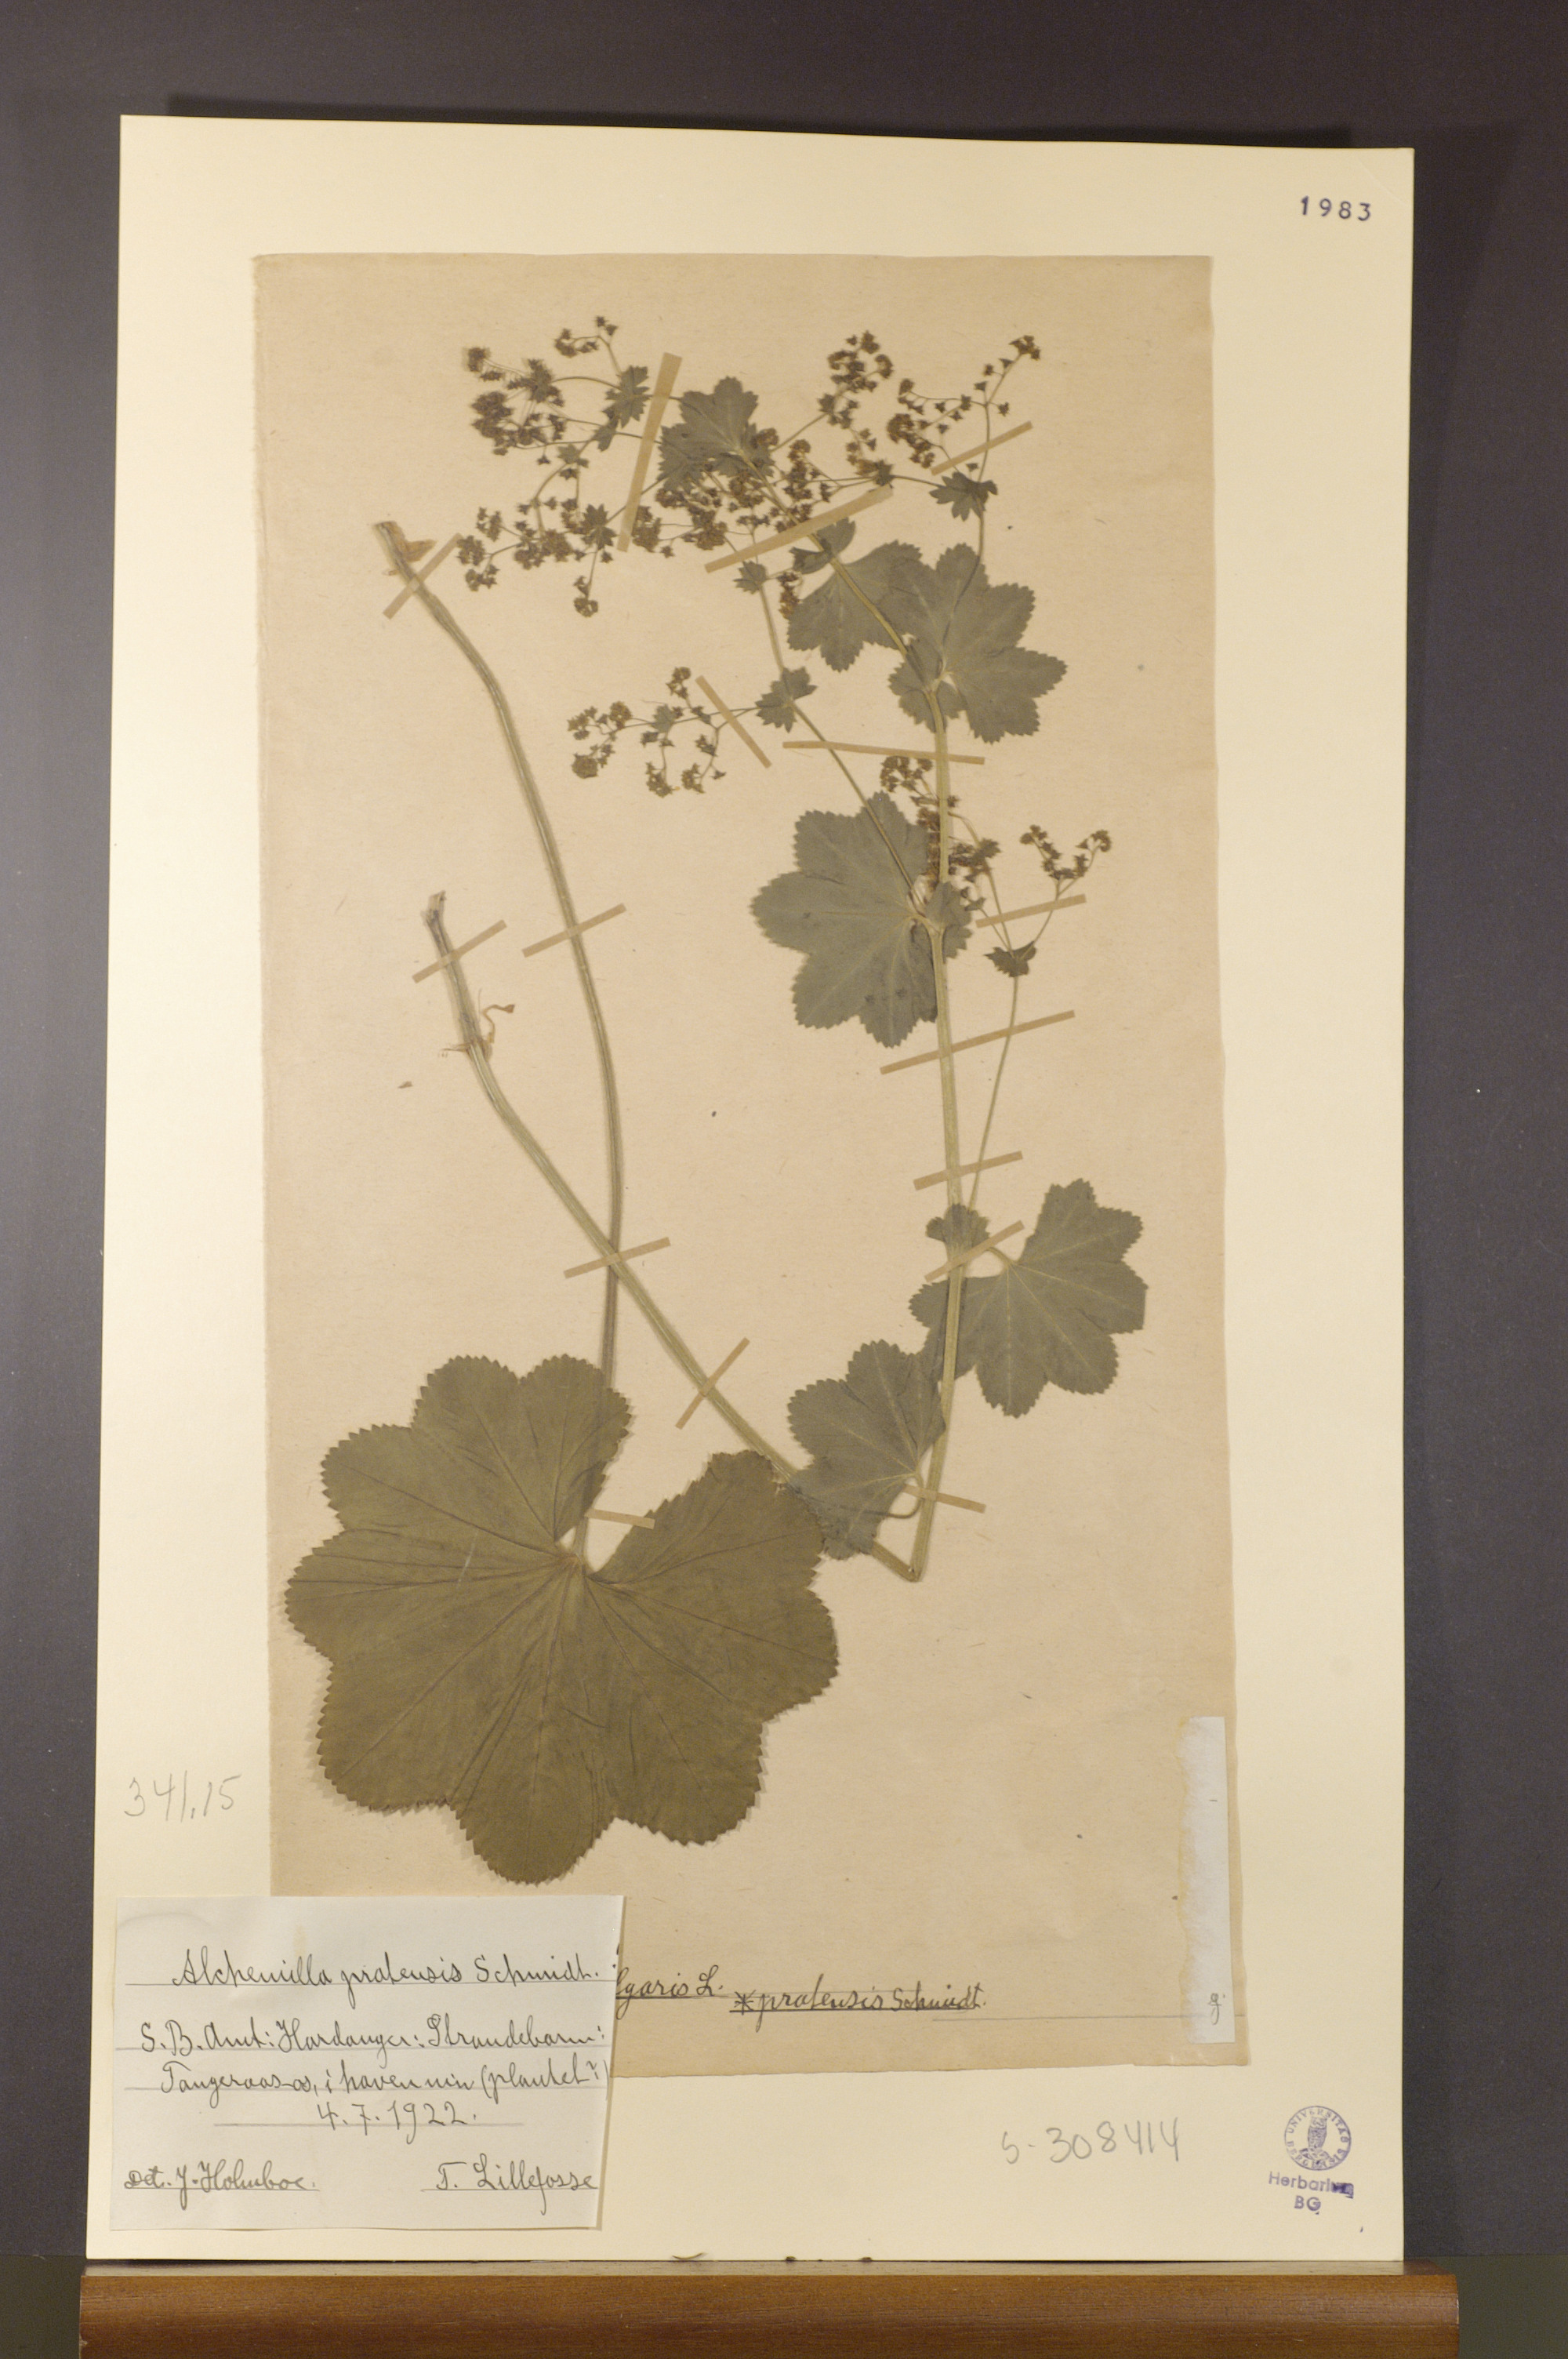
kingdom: Plantae
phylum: Tracheophyta
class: Magnoliopsida
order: Rosales
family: Rosaceae
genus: Alchemilla
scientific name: Alchemilla xanthochlora
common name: Intermediate lady's-mantle
